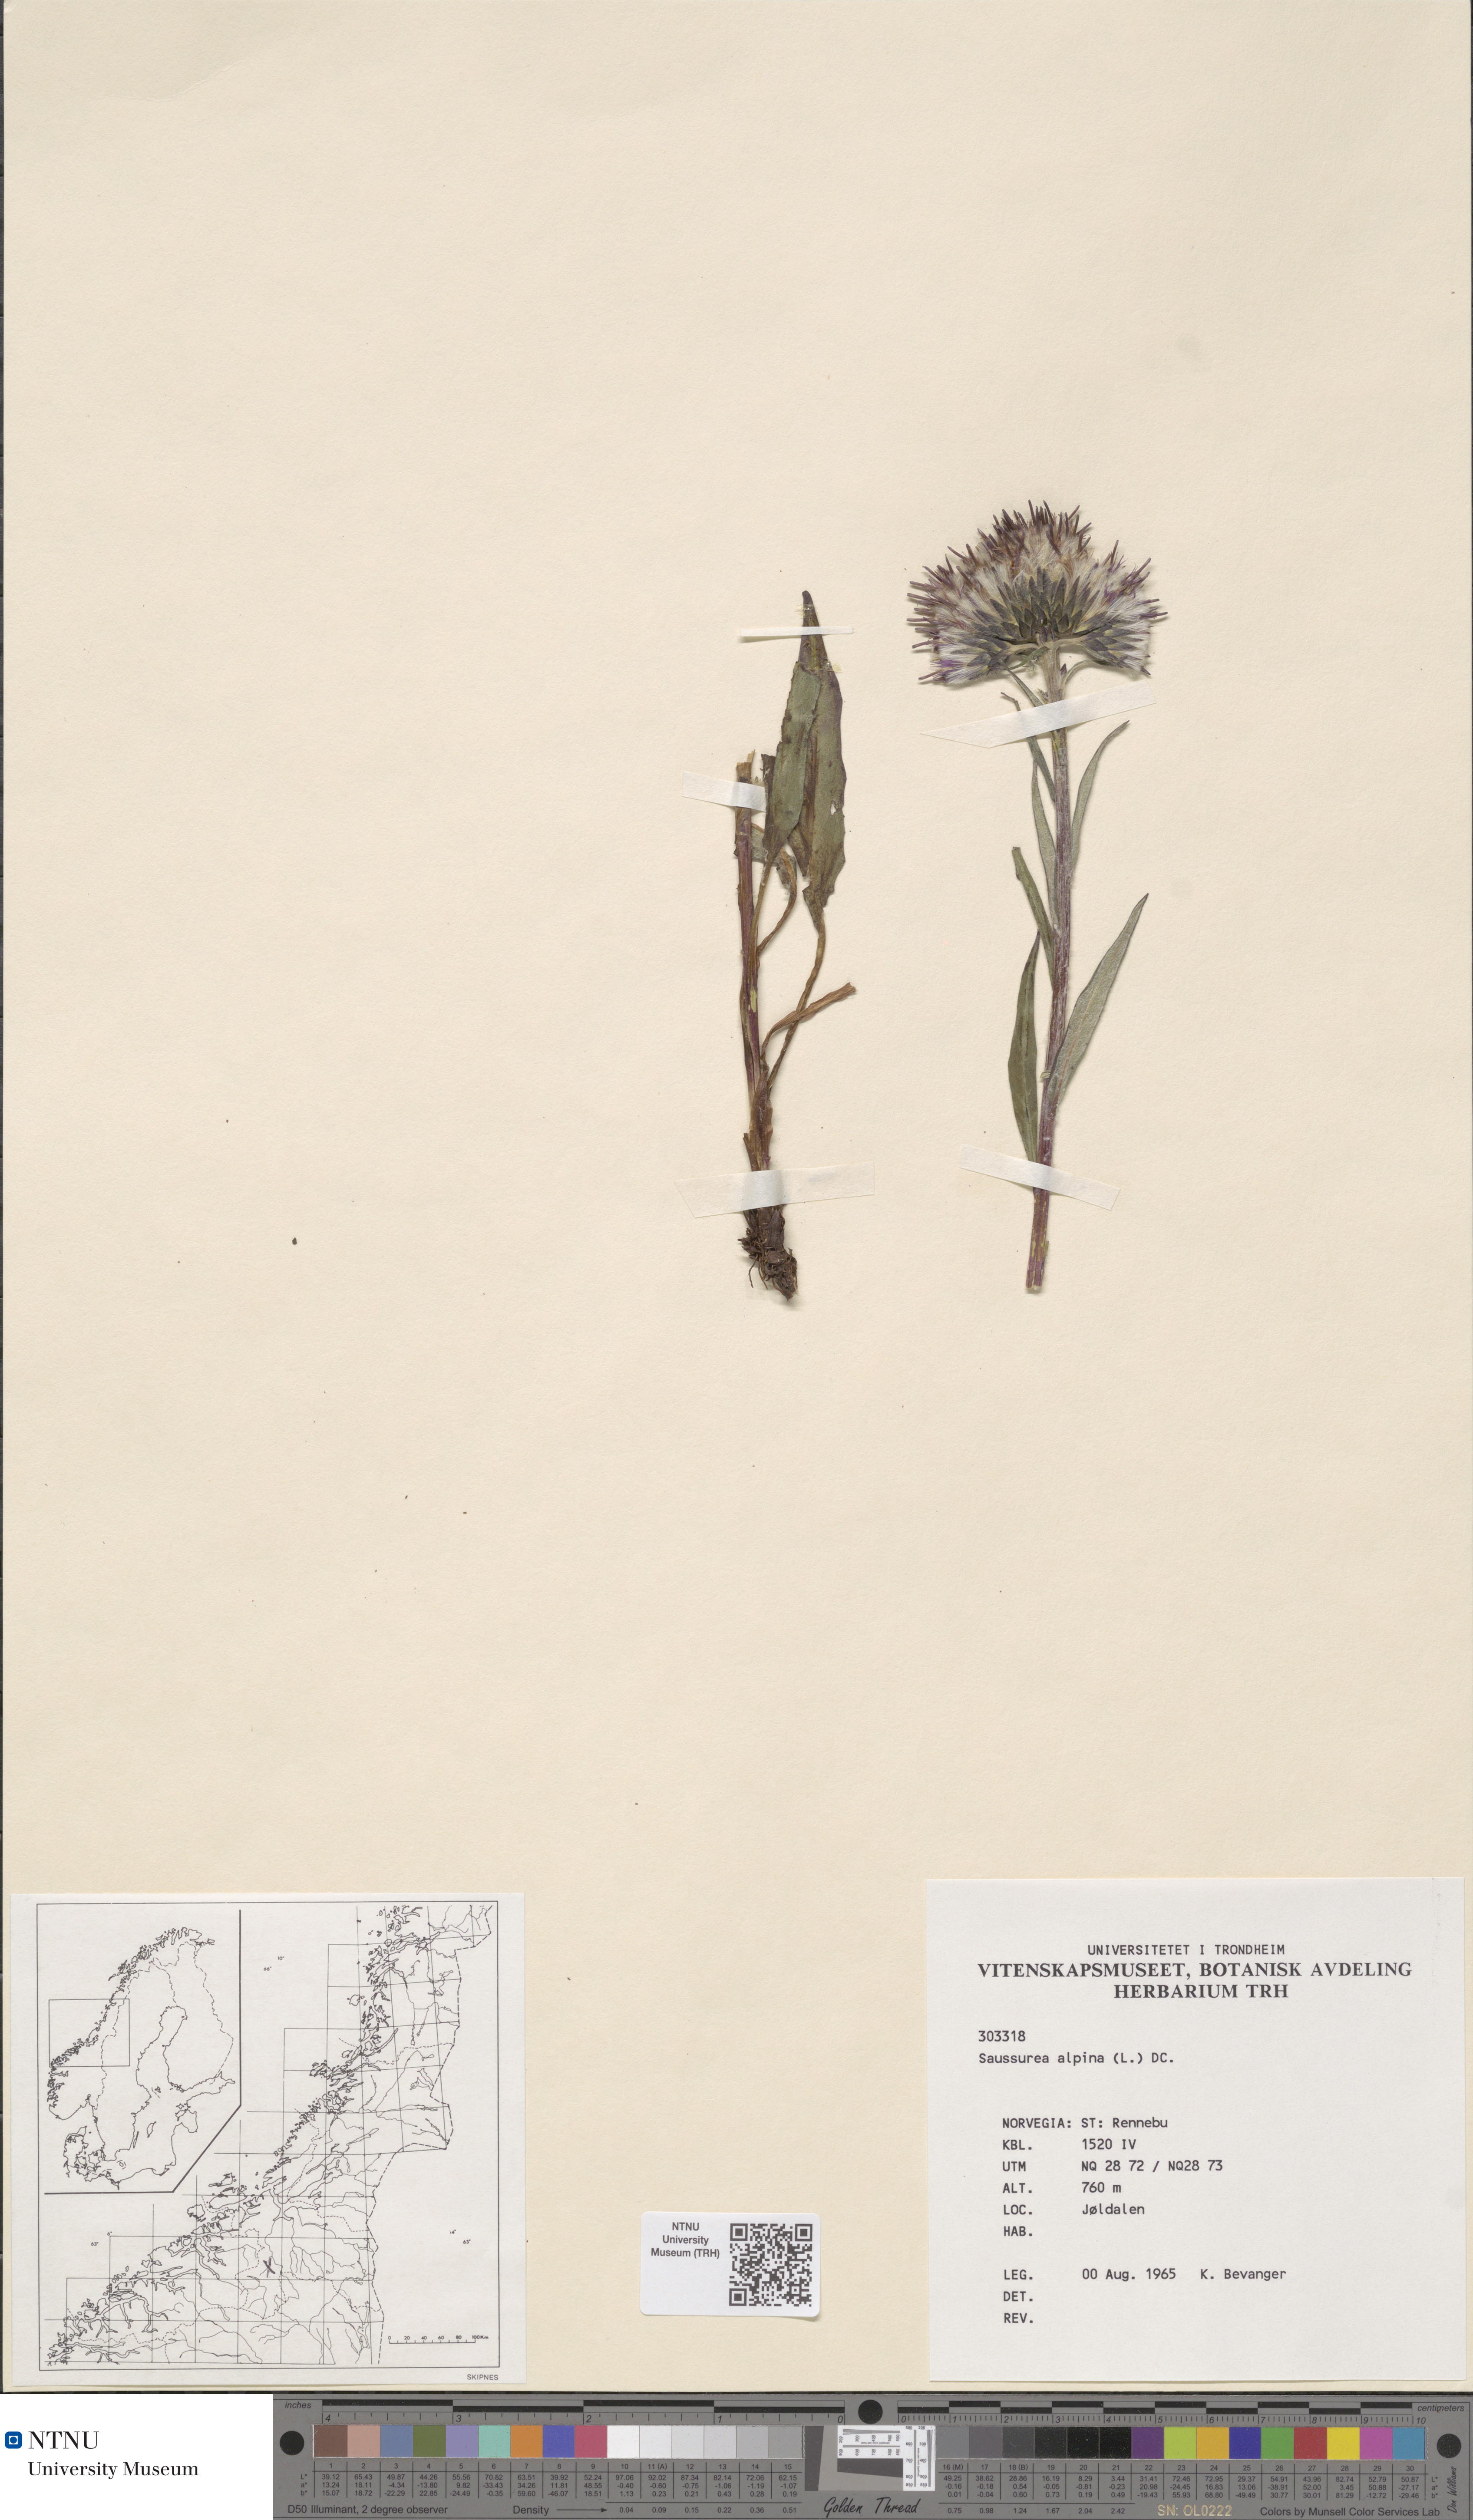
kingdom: Plantae
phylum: Tracheophyta
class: Magnoliopsida
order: Asterales
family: Asteraceae
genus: Saussurea
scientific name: Saussurea alpina
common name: Alpine saw-wort
